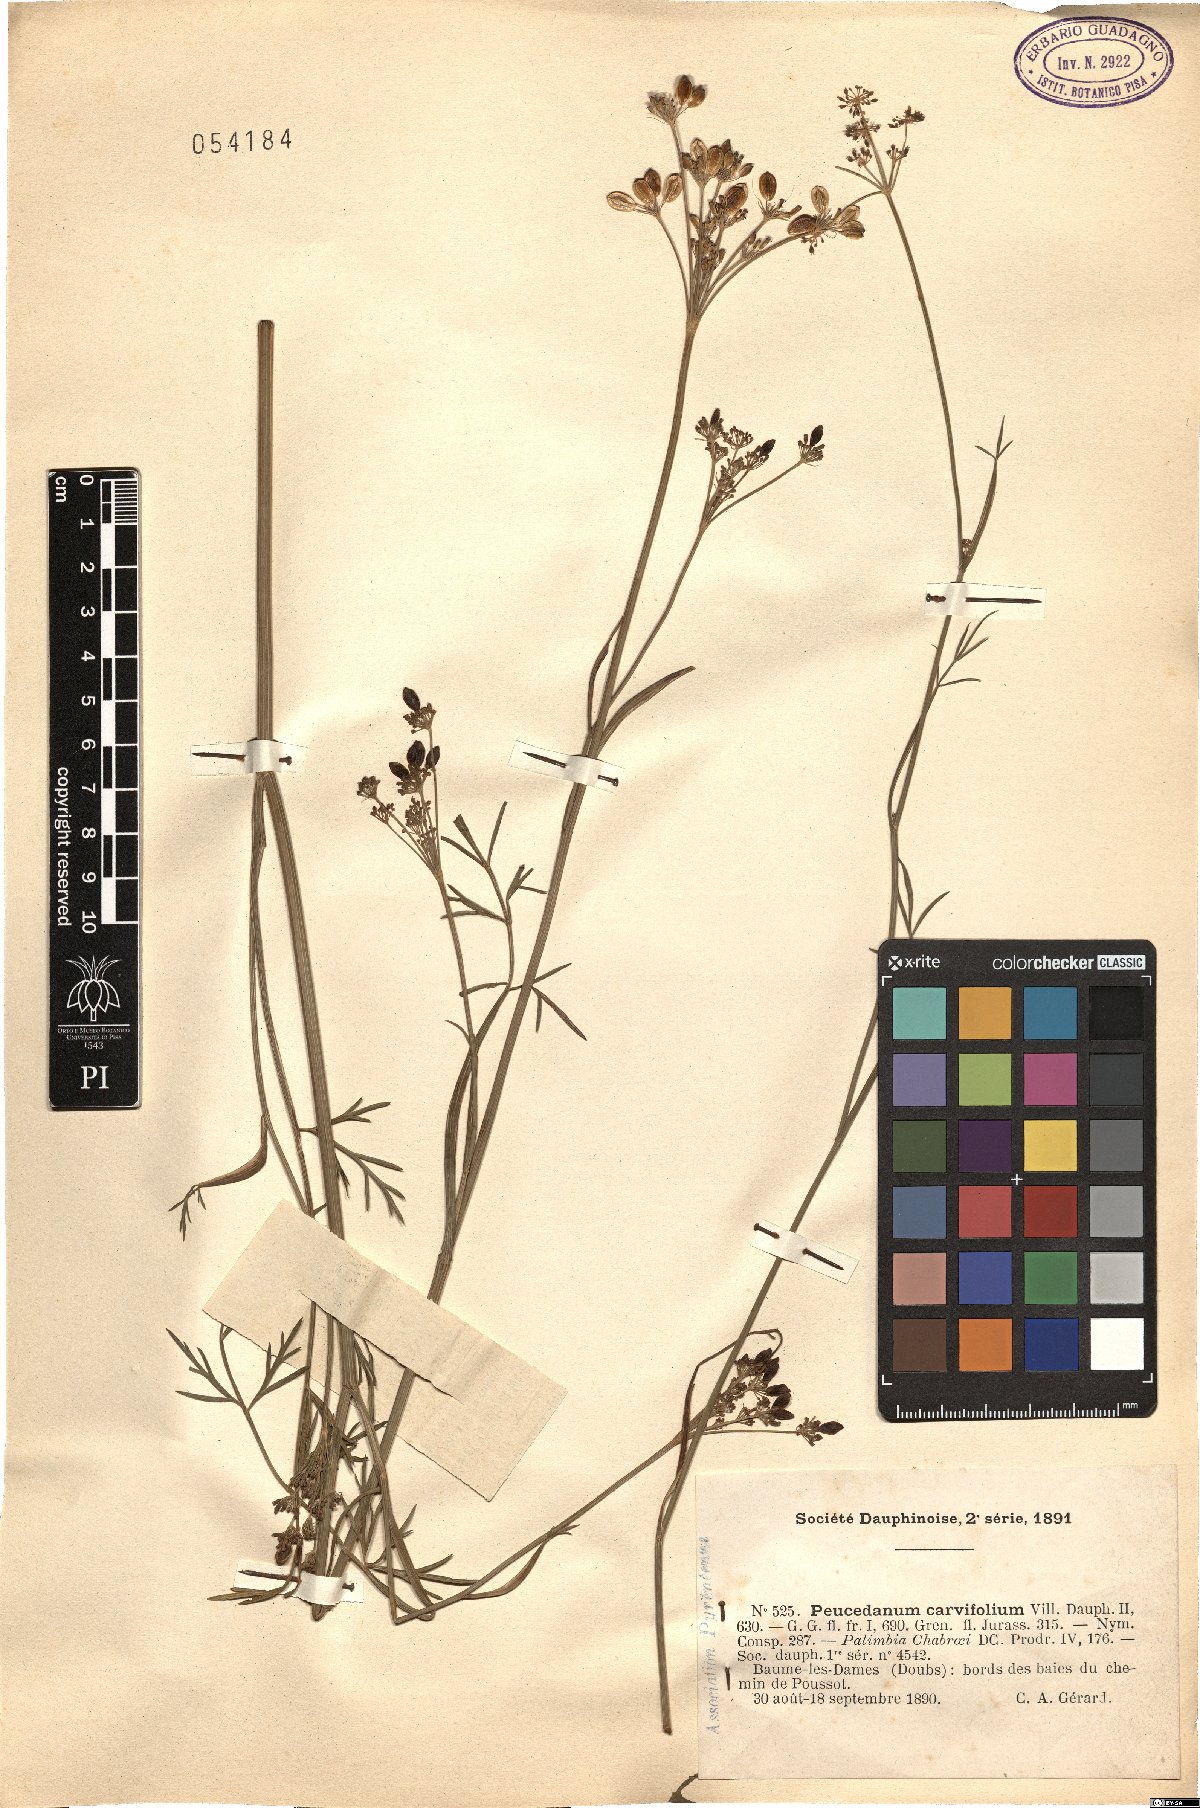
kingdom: Plantae
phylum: Tracheophyta
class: Magnoliopsida
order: Apiales
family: Apiaceae
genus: Dichoropetalum
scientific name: Dichoropetalum carvifolia
